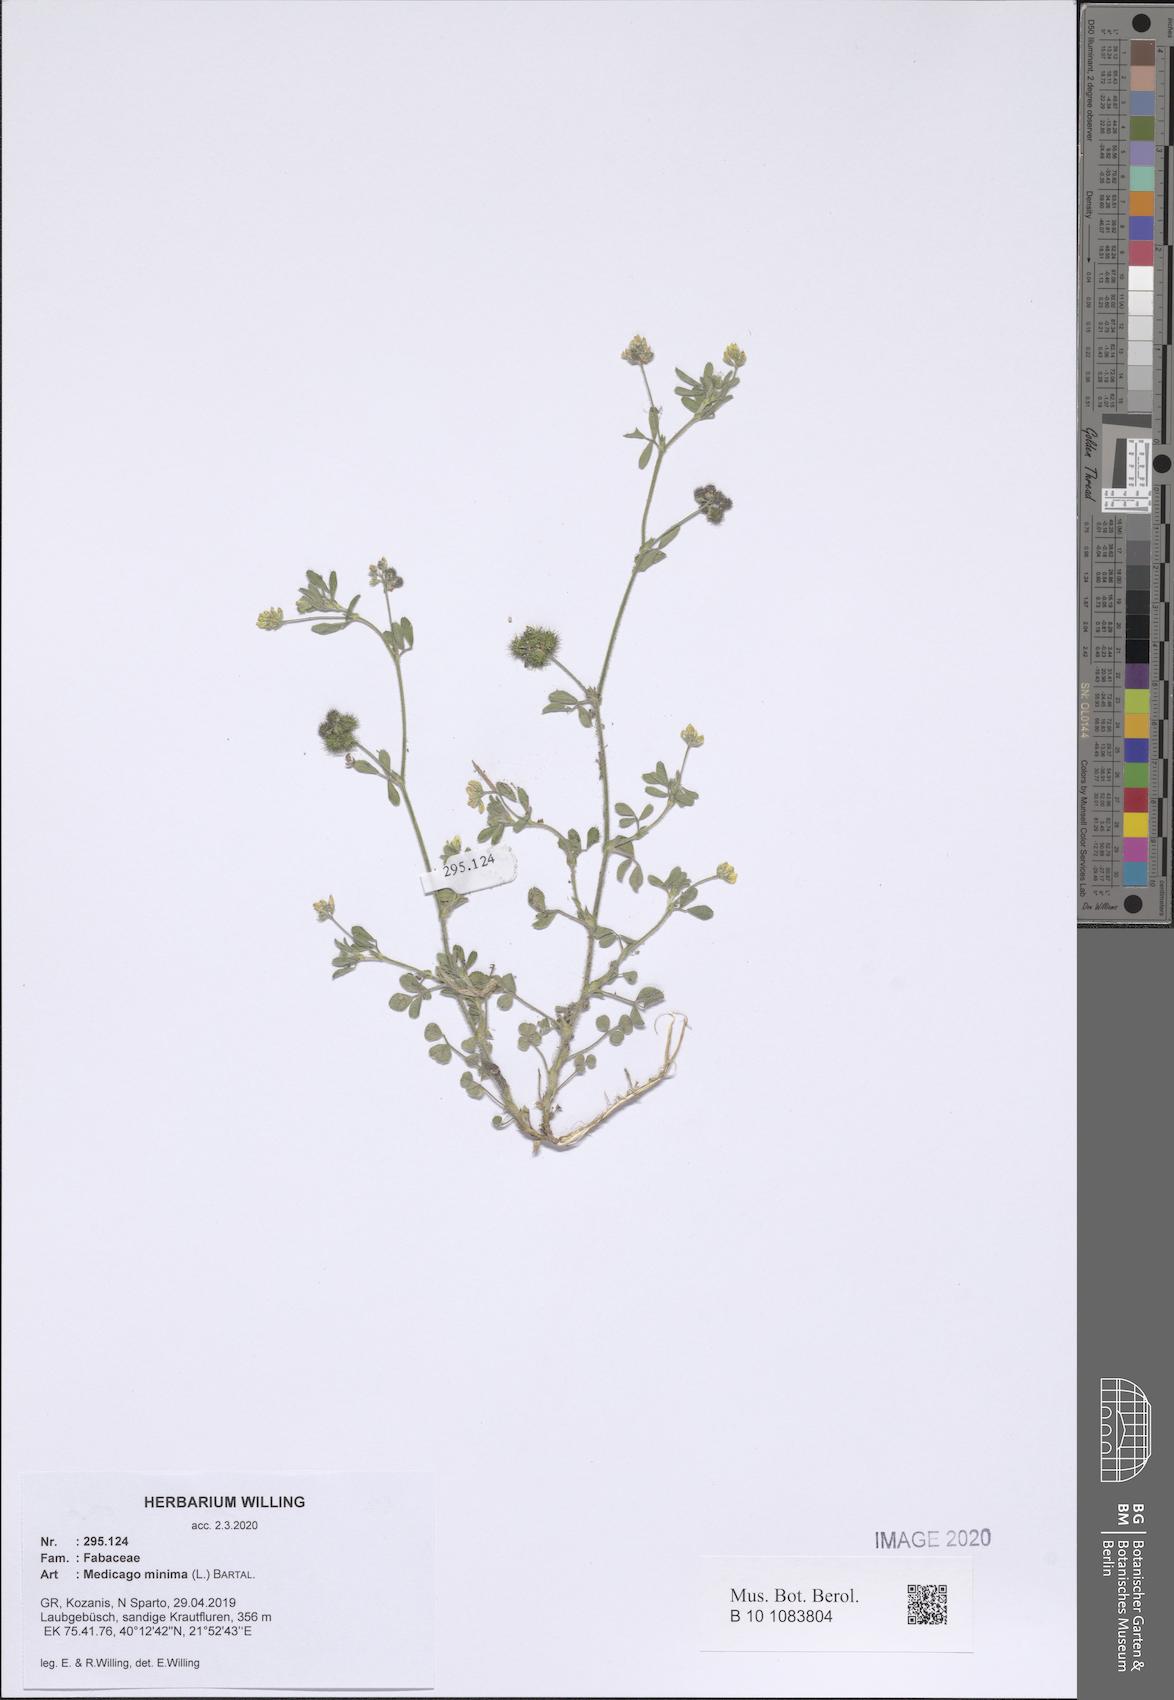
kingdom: Plantae
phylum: Tracheophyta
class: Magnoliopsida
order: Fabales
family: Fabaceae
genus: Medicago
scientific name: Medicago minima
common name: Little bur-clover
